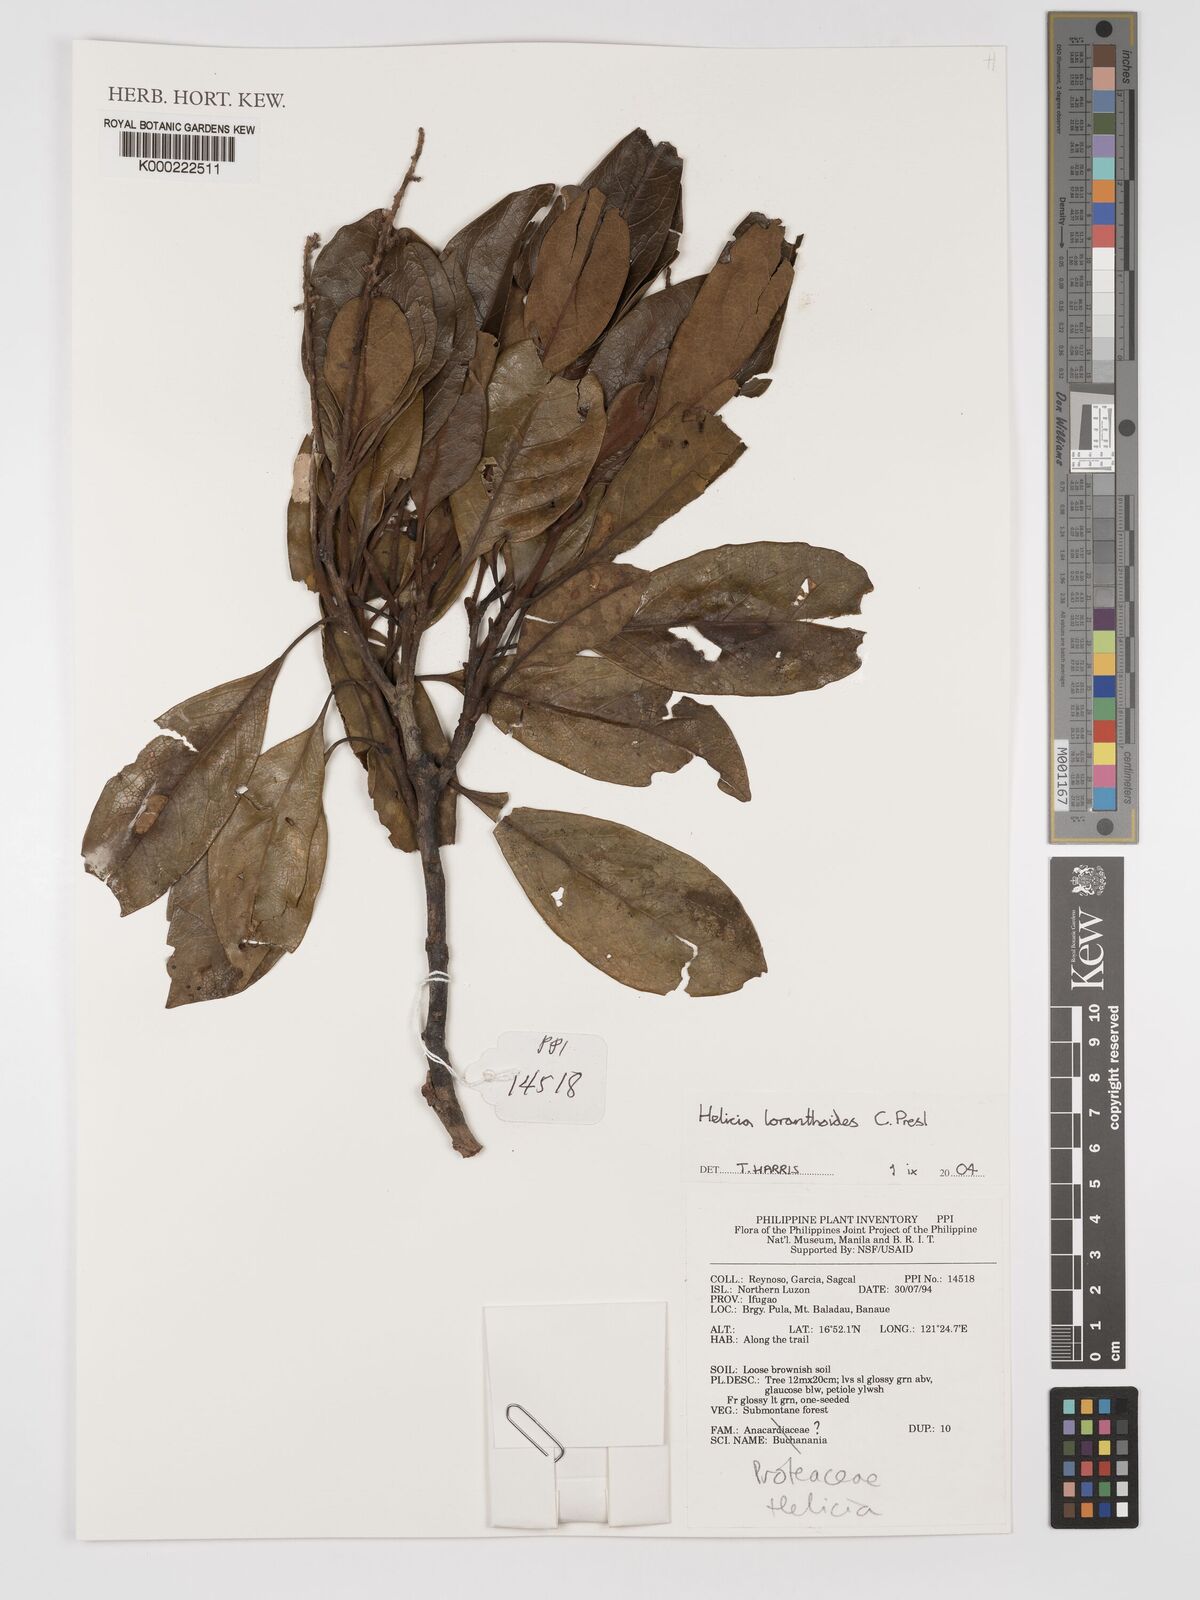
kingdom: Plantae
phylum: Tracheophyta
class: Magnoliopsida
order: Proteales
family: Proteaceae
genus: Helicia
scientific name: Helicia loranthoides
